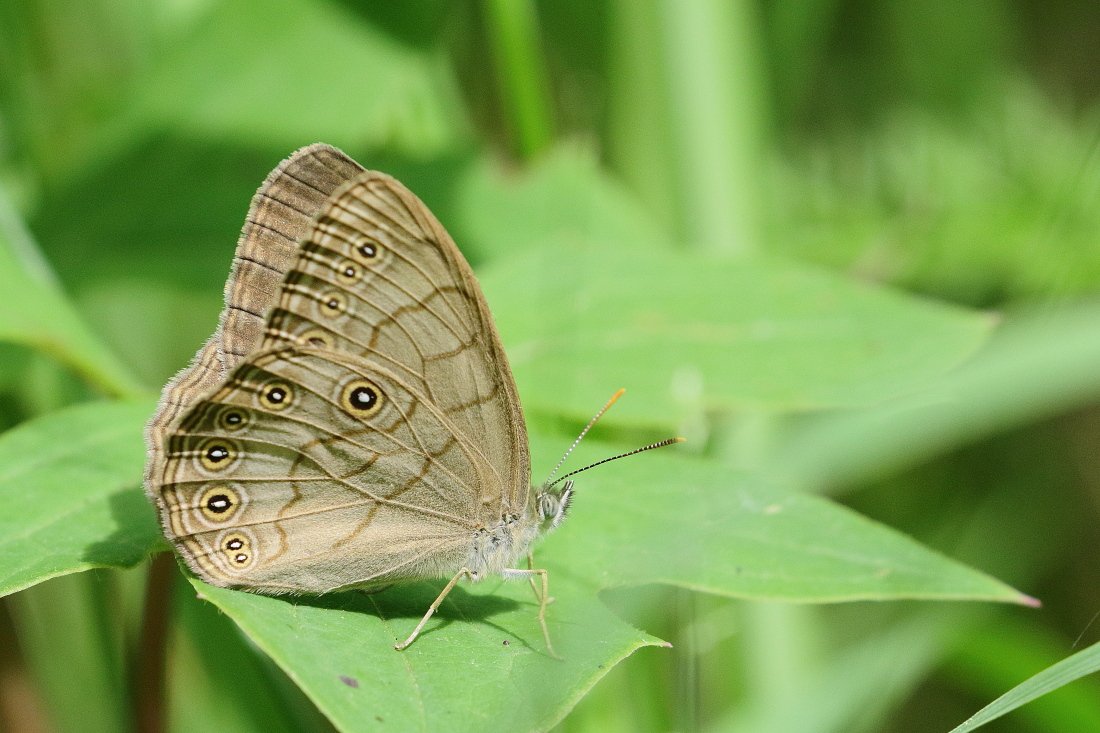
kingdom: Animalia
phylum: Arthropoda
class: Insecta
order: Lepidoptera
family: Nymphalidae
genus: Lethe
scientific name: Lethe eurydice
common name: Appalachian Eyed Brown
